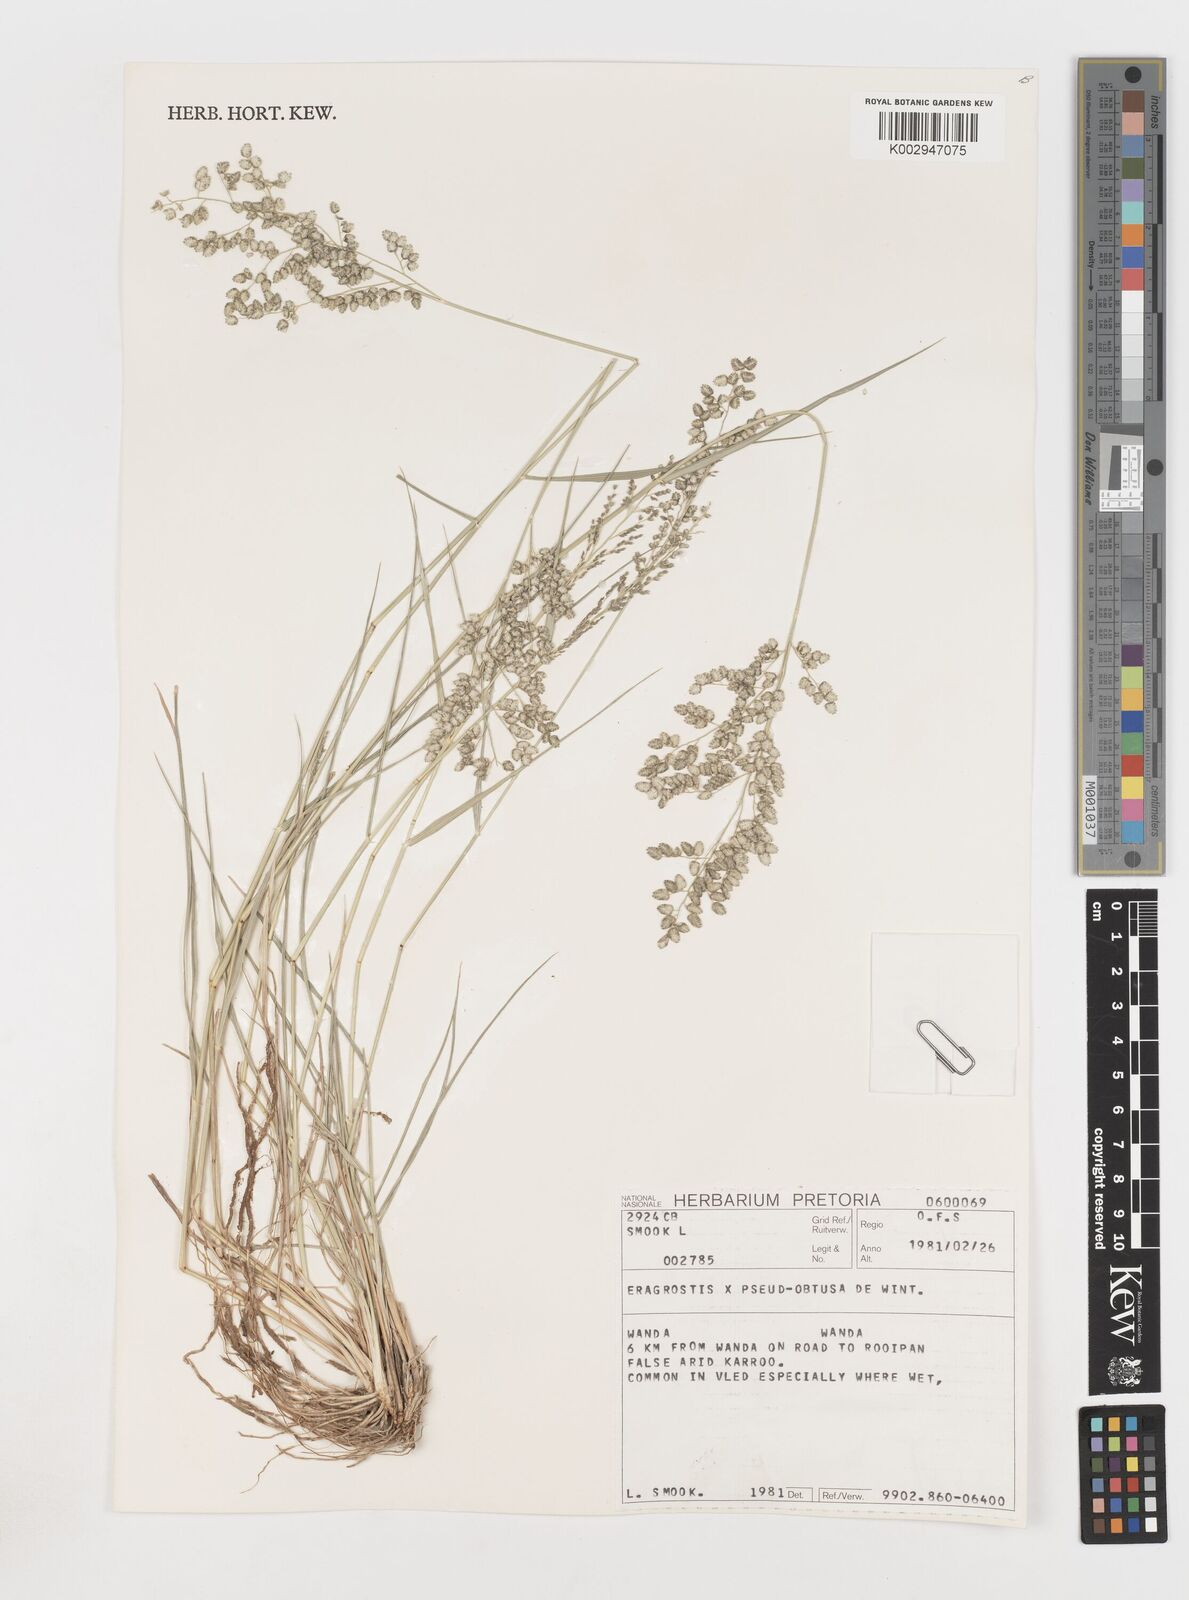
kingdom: Plantae
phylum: Tracheophyta
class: Liliopsida
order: Poales
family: Poaceae
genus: Eragrostis
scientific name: Eragrostis pseudobtusa
